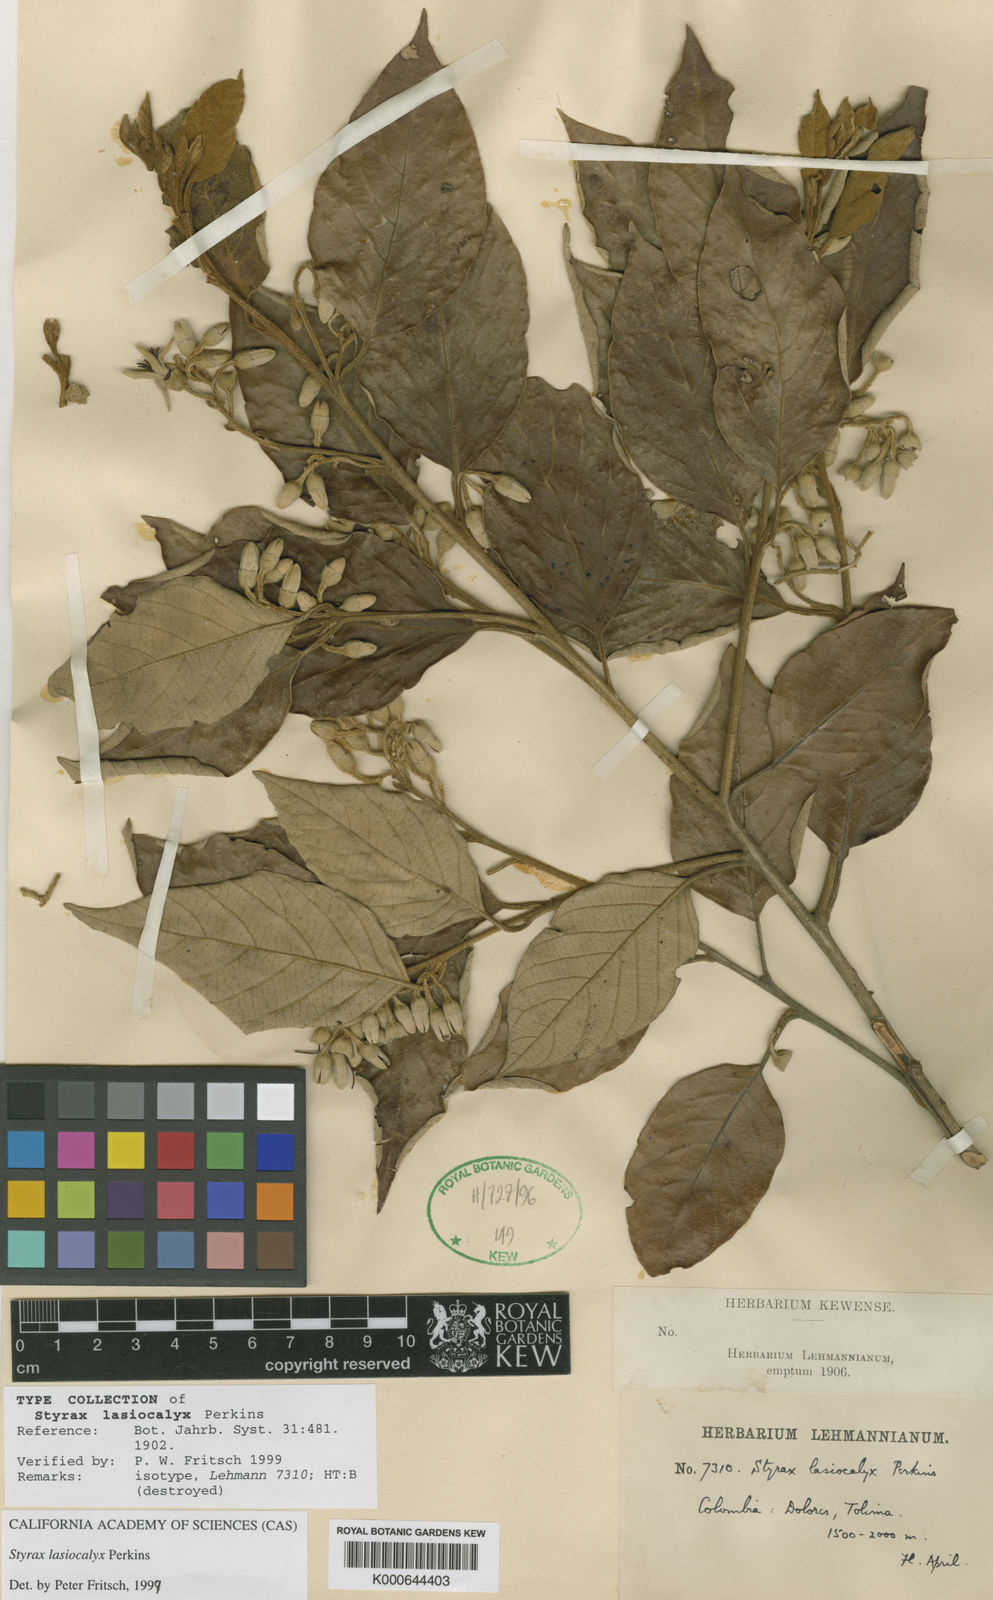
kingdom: Plantae
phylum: Tracheophyta
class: Magnoliopsida
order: Ericales
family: Styracaceae
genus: Styrax
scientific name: Styrax lasiocalyx
